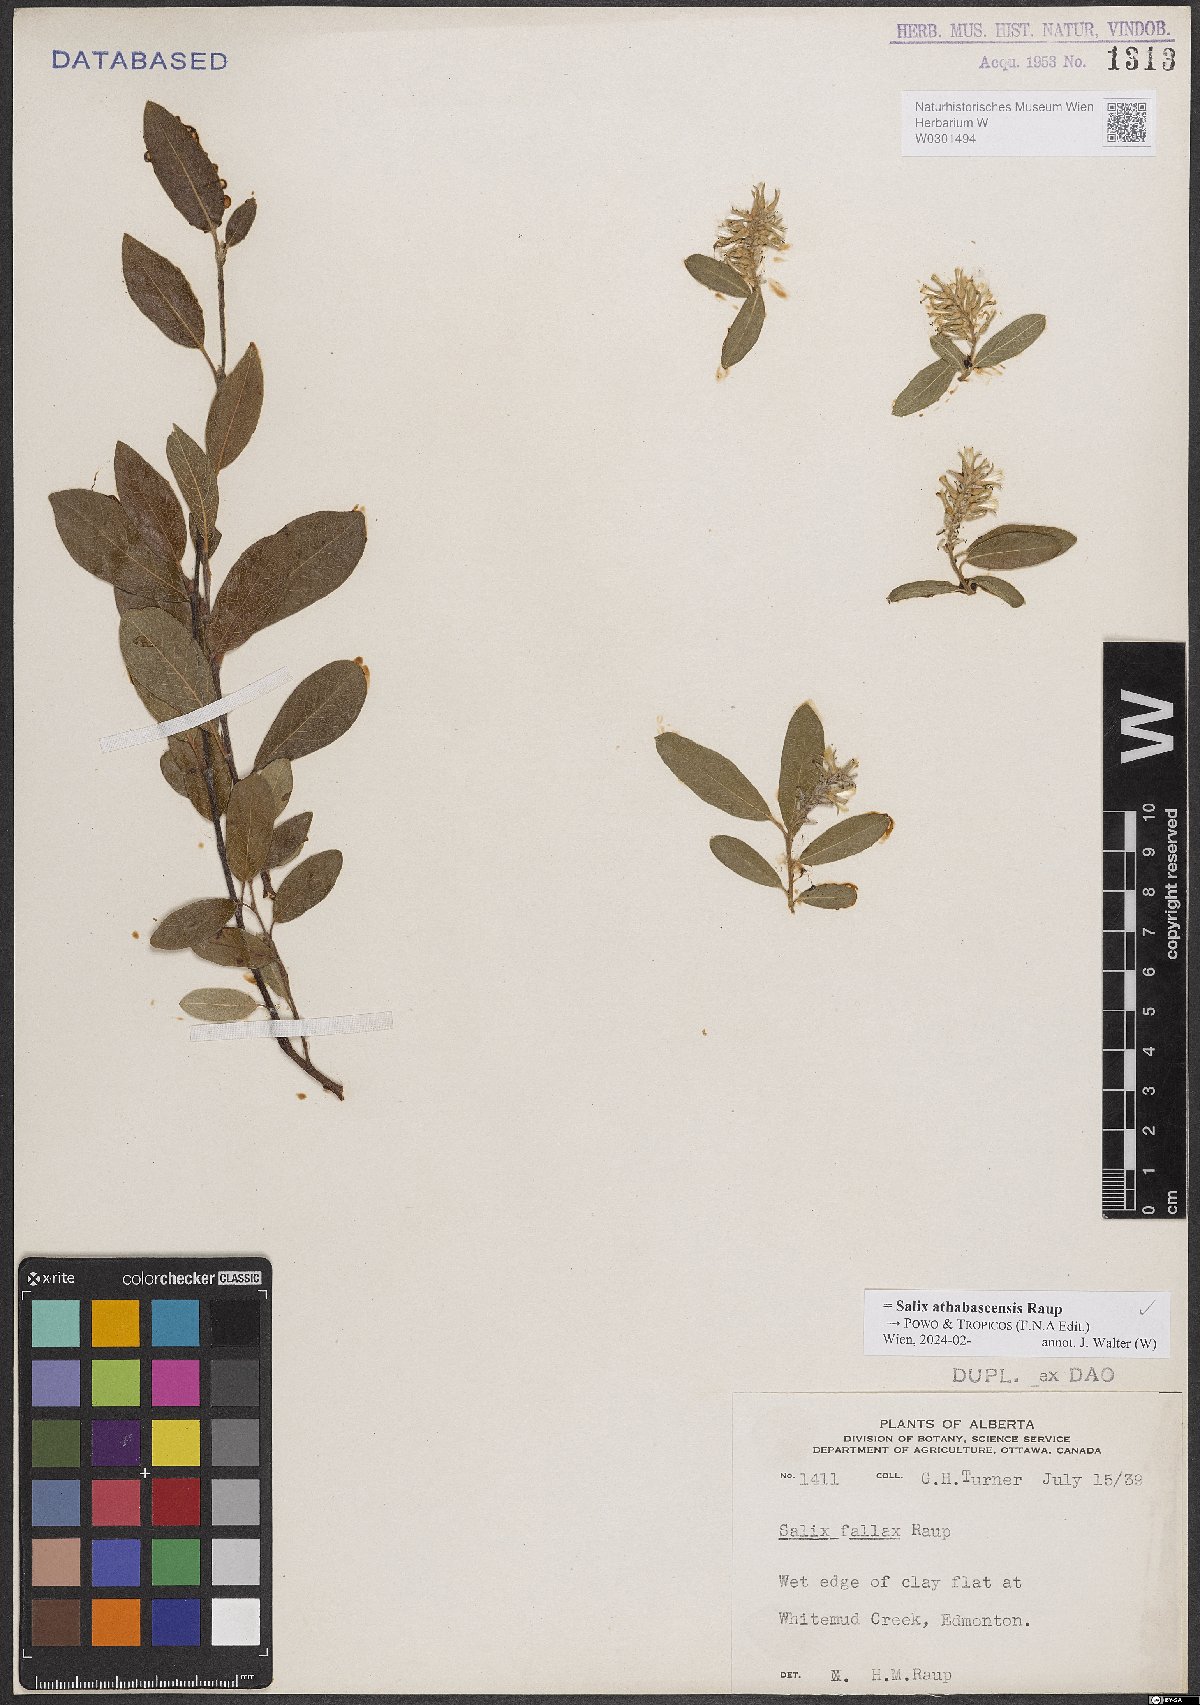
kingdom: Plantae
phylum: Tracheophyta
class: Magnoliopsida
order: Malpighiales
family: Salicaceae
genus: Salix
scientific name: Salix athabascensis
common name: Athabasca willow
